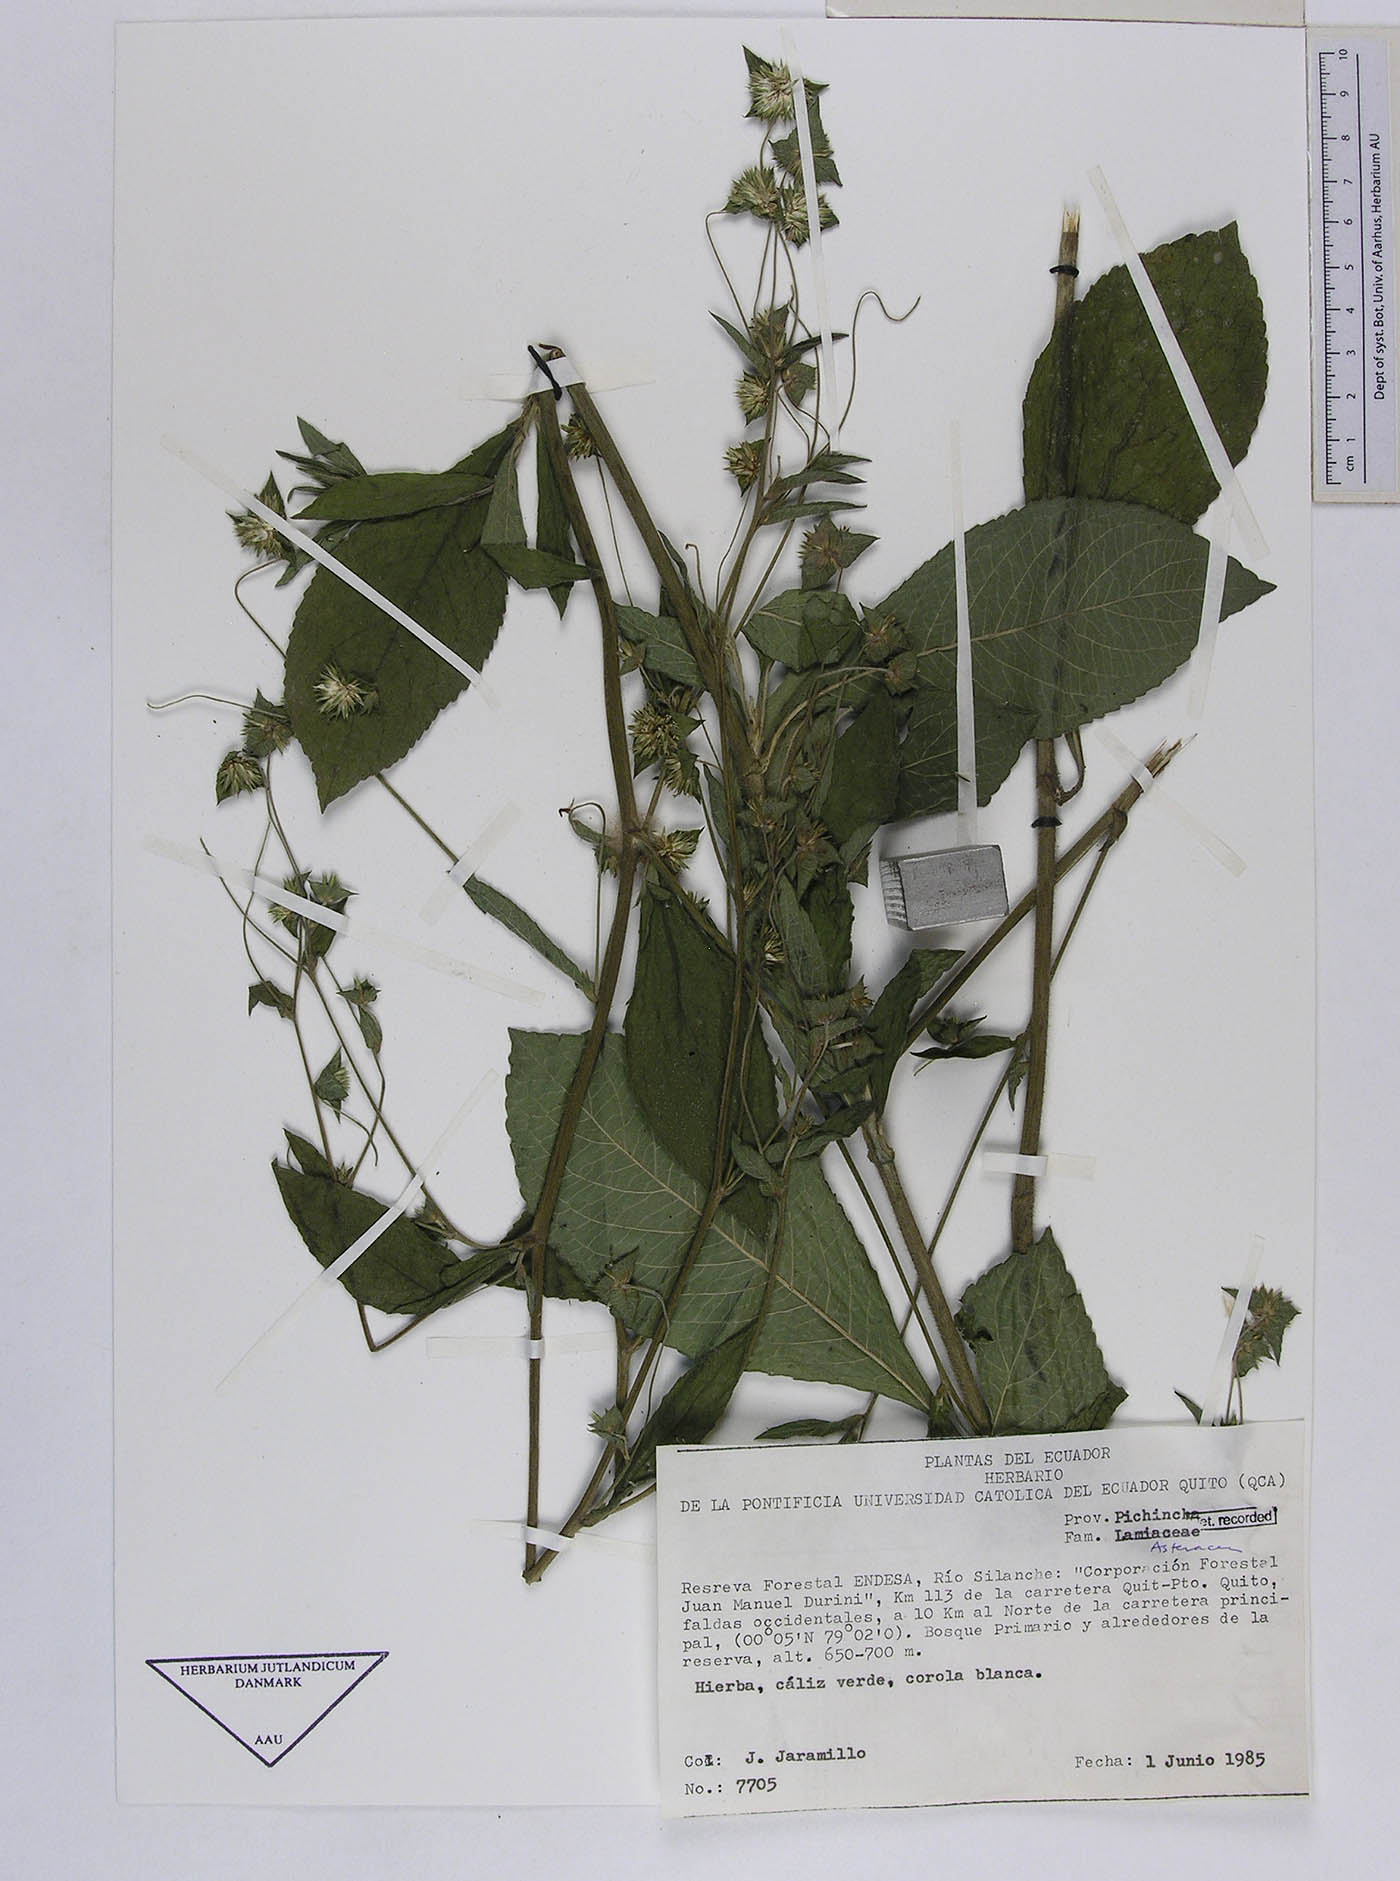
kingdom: Plantae
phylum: Tracheophyta
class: Magnoliopsida
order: Asterales
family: Asteraceae
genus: Elephantopus
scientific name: Elephantopus mollis
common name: Soft elephantsfoot
